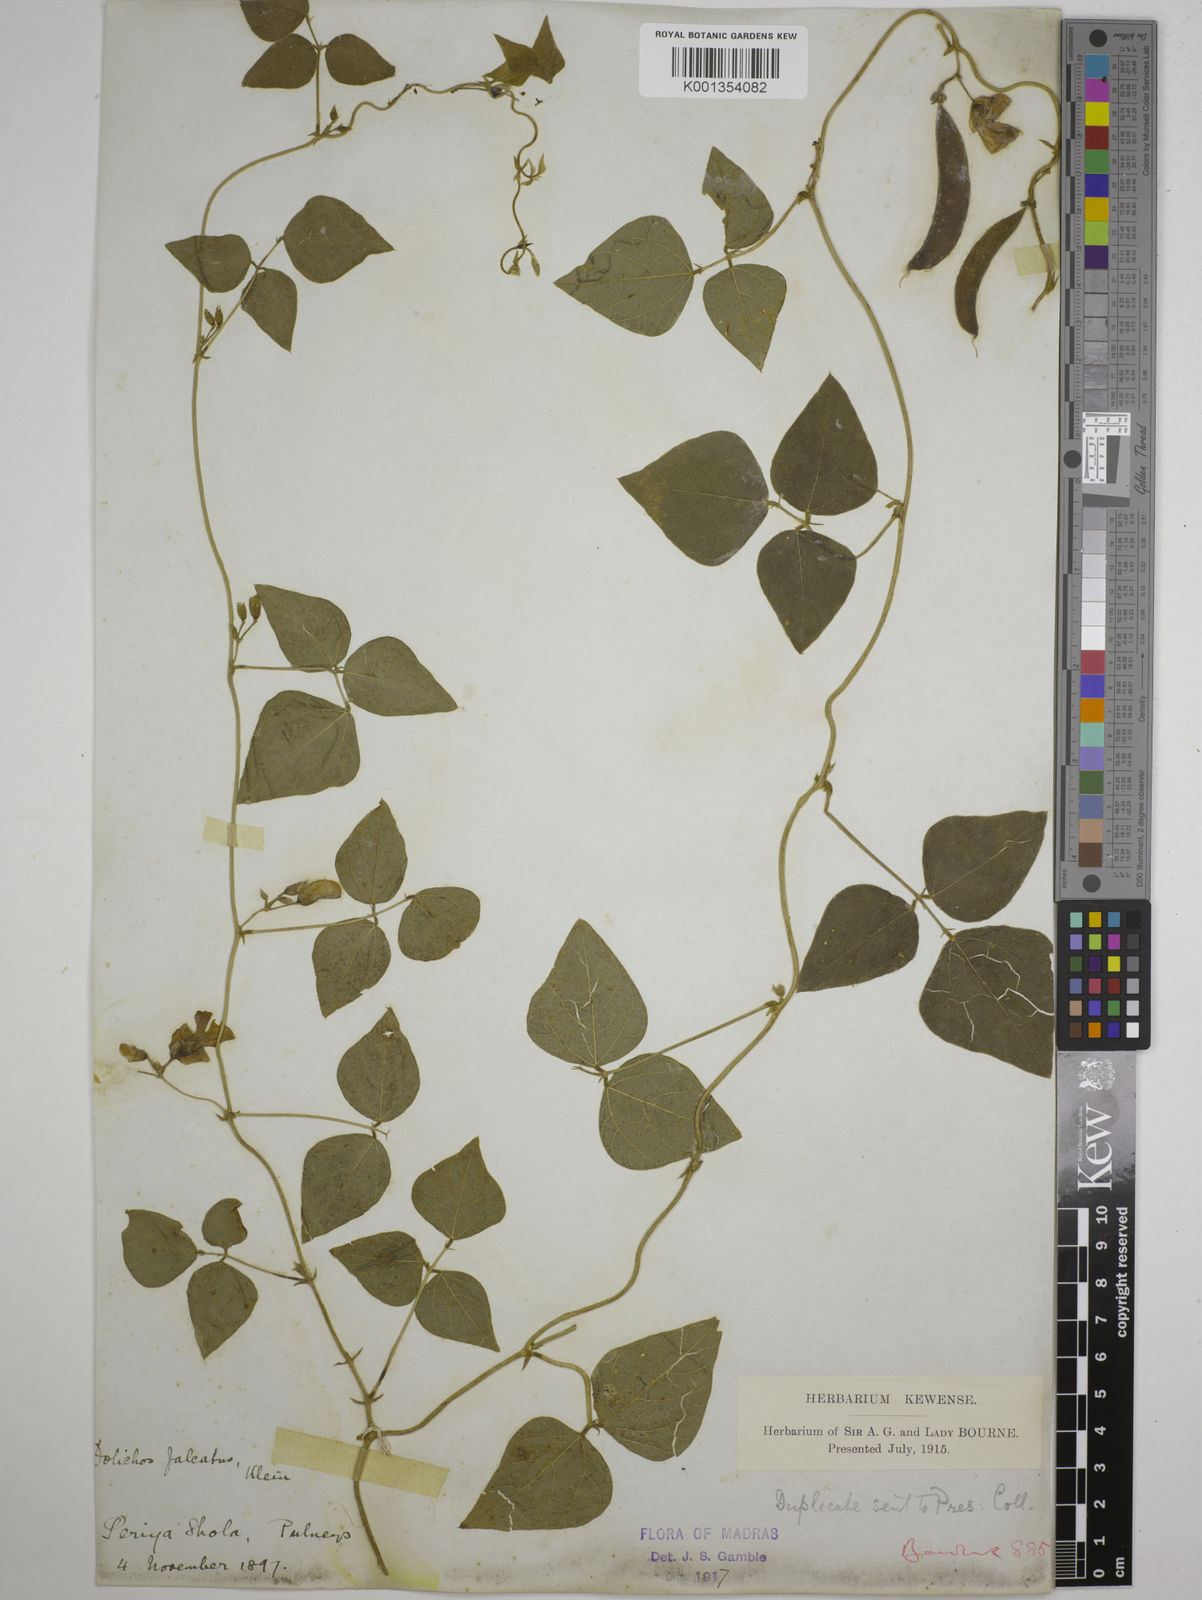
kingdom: Plantae
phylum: Tracheophyta
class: Magnoliopsida
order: Fabales
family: Fabaceae
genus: Dolichos
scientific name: Dolichos
